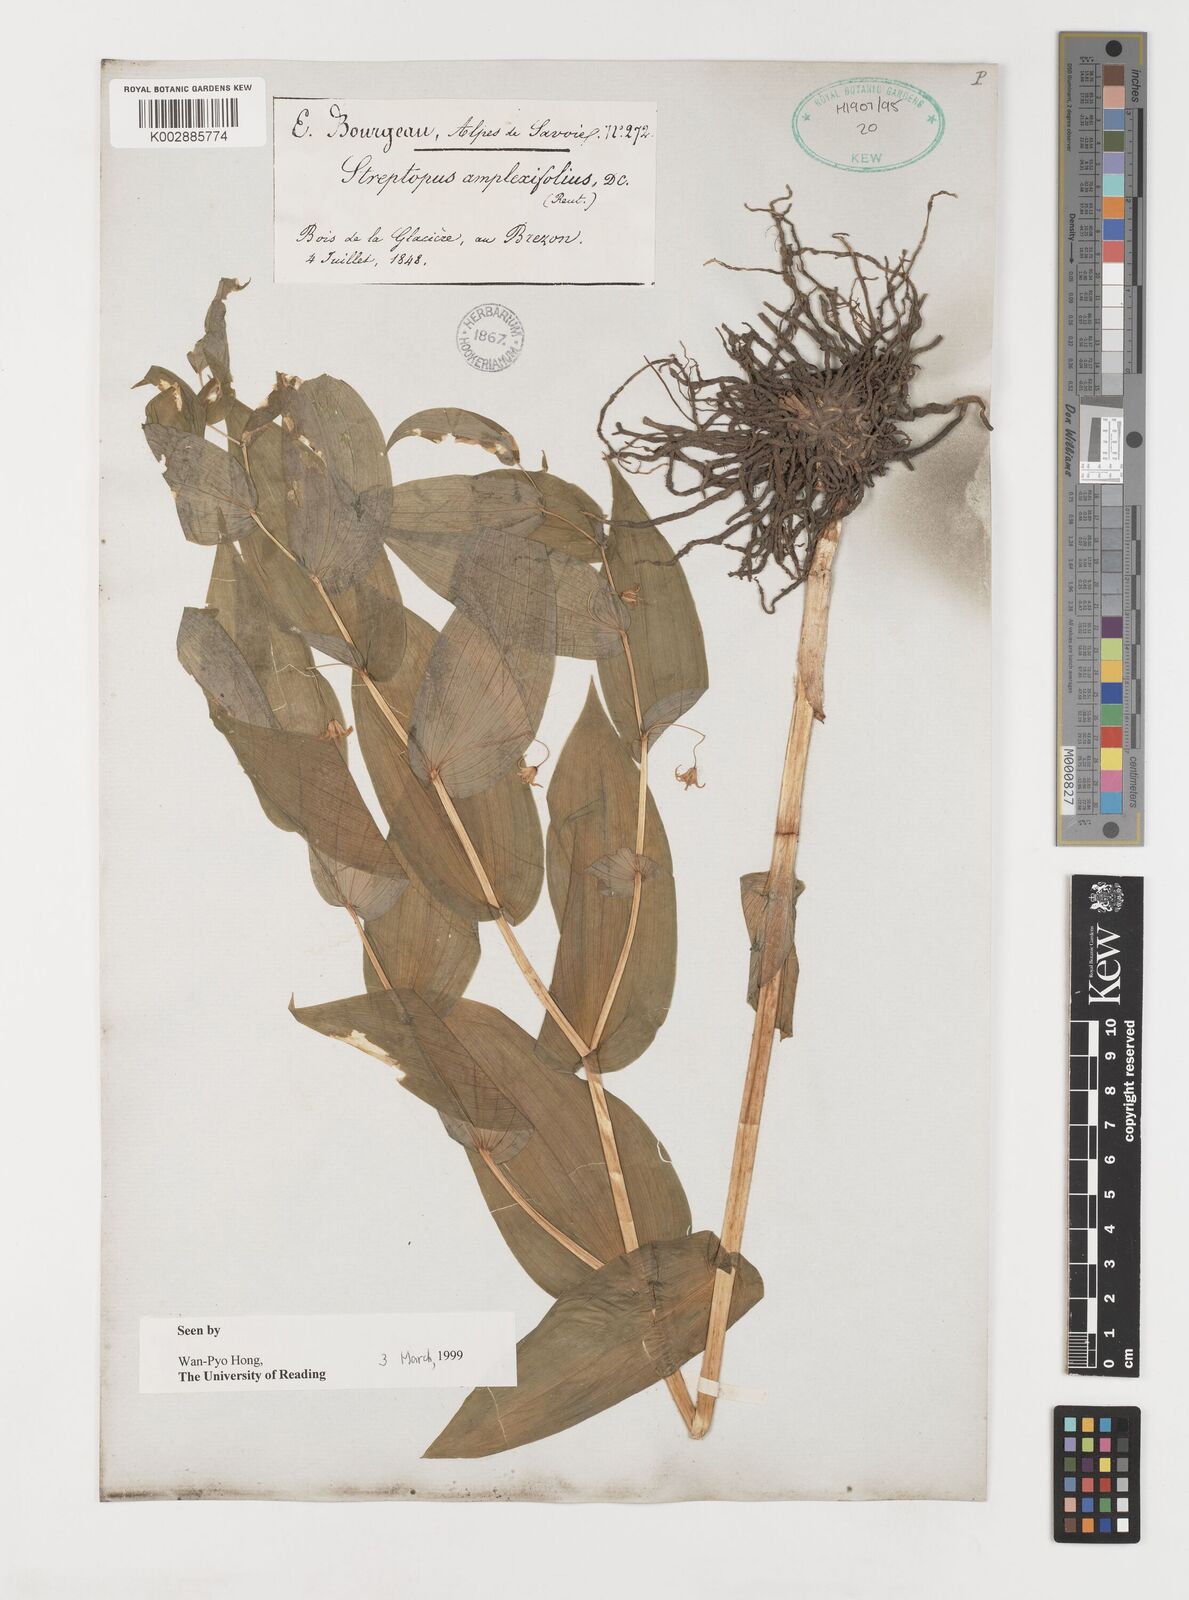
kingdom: Plantae
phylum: Tracheophyta
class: Liliopsida
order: Liliales
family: Liliaceae
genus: Streptopus
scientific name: Streptopus amplexifolius
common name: Clasp twisted stalk
